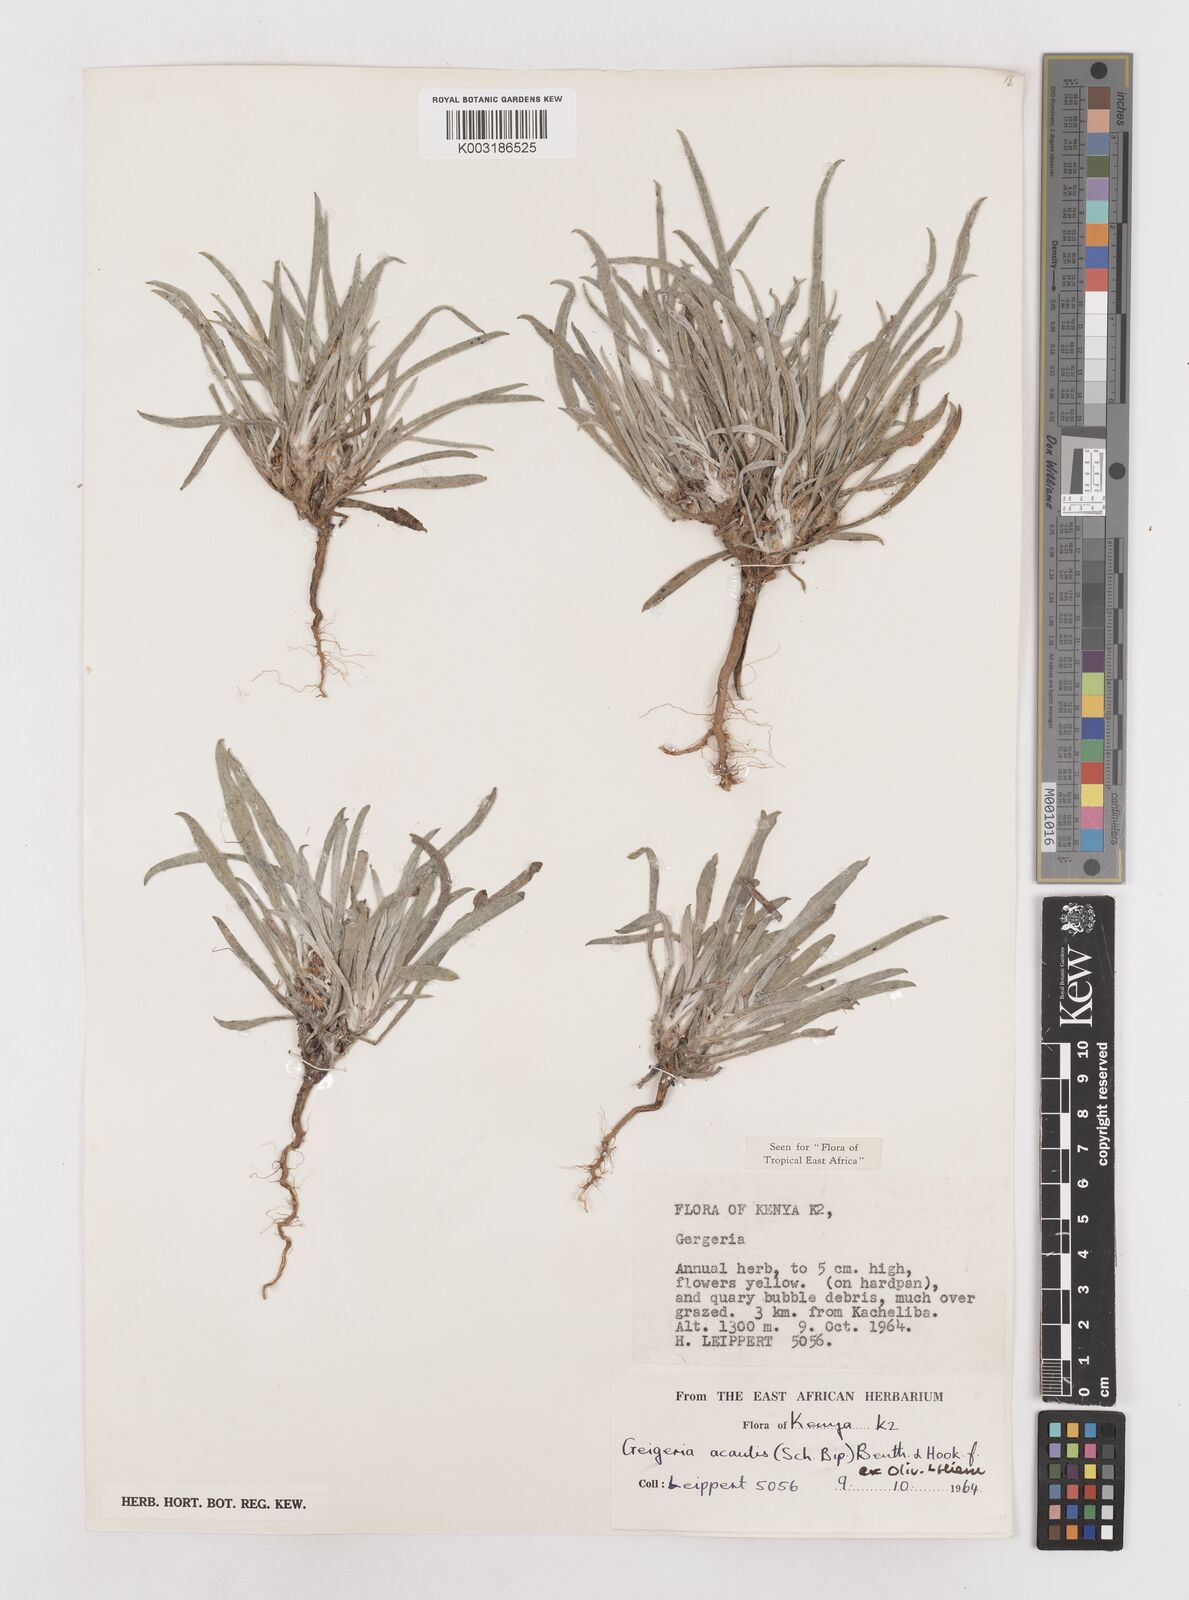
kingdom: Plantae
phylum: Tracheophyta
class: Magnoliopsida
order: Asterales
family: Asteraceae
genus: Geigeria
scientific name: Geigeria acaulis
